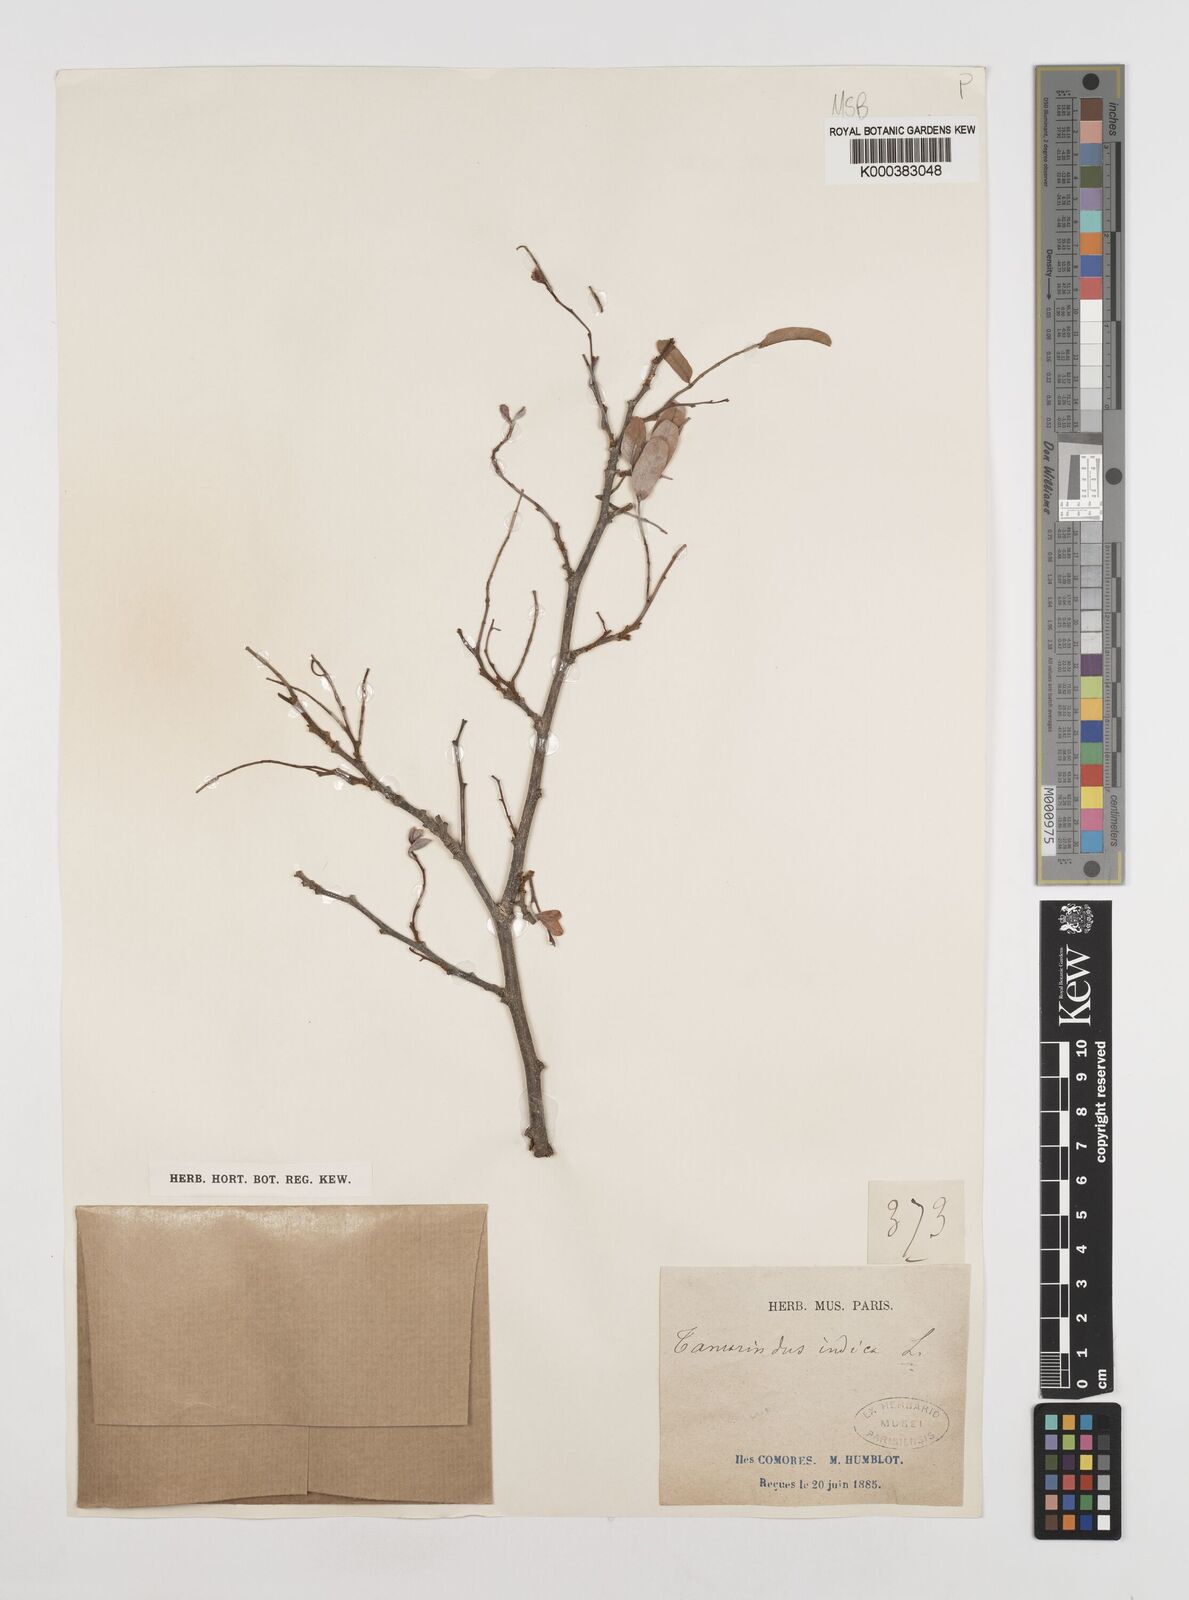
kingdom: Plantae
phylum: Tracheophyta
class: Magnoliopsida
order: Fabales
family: Fabaceae
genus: Tamarindus
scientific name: Tamarindus indica
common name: Tamarind
